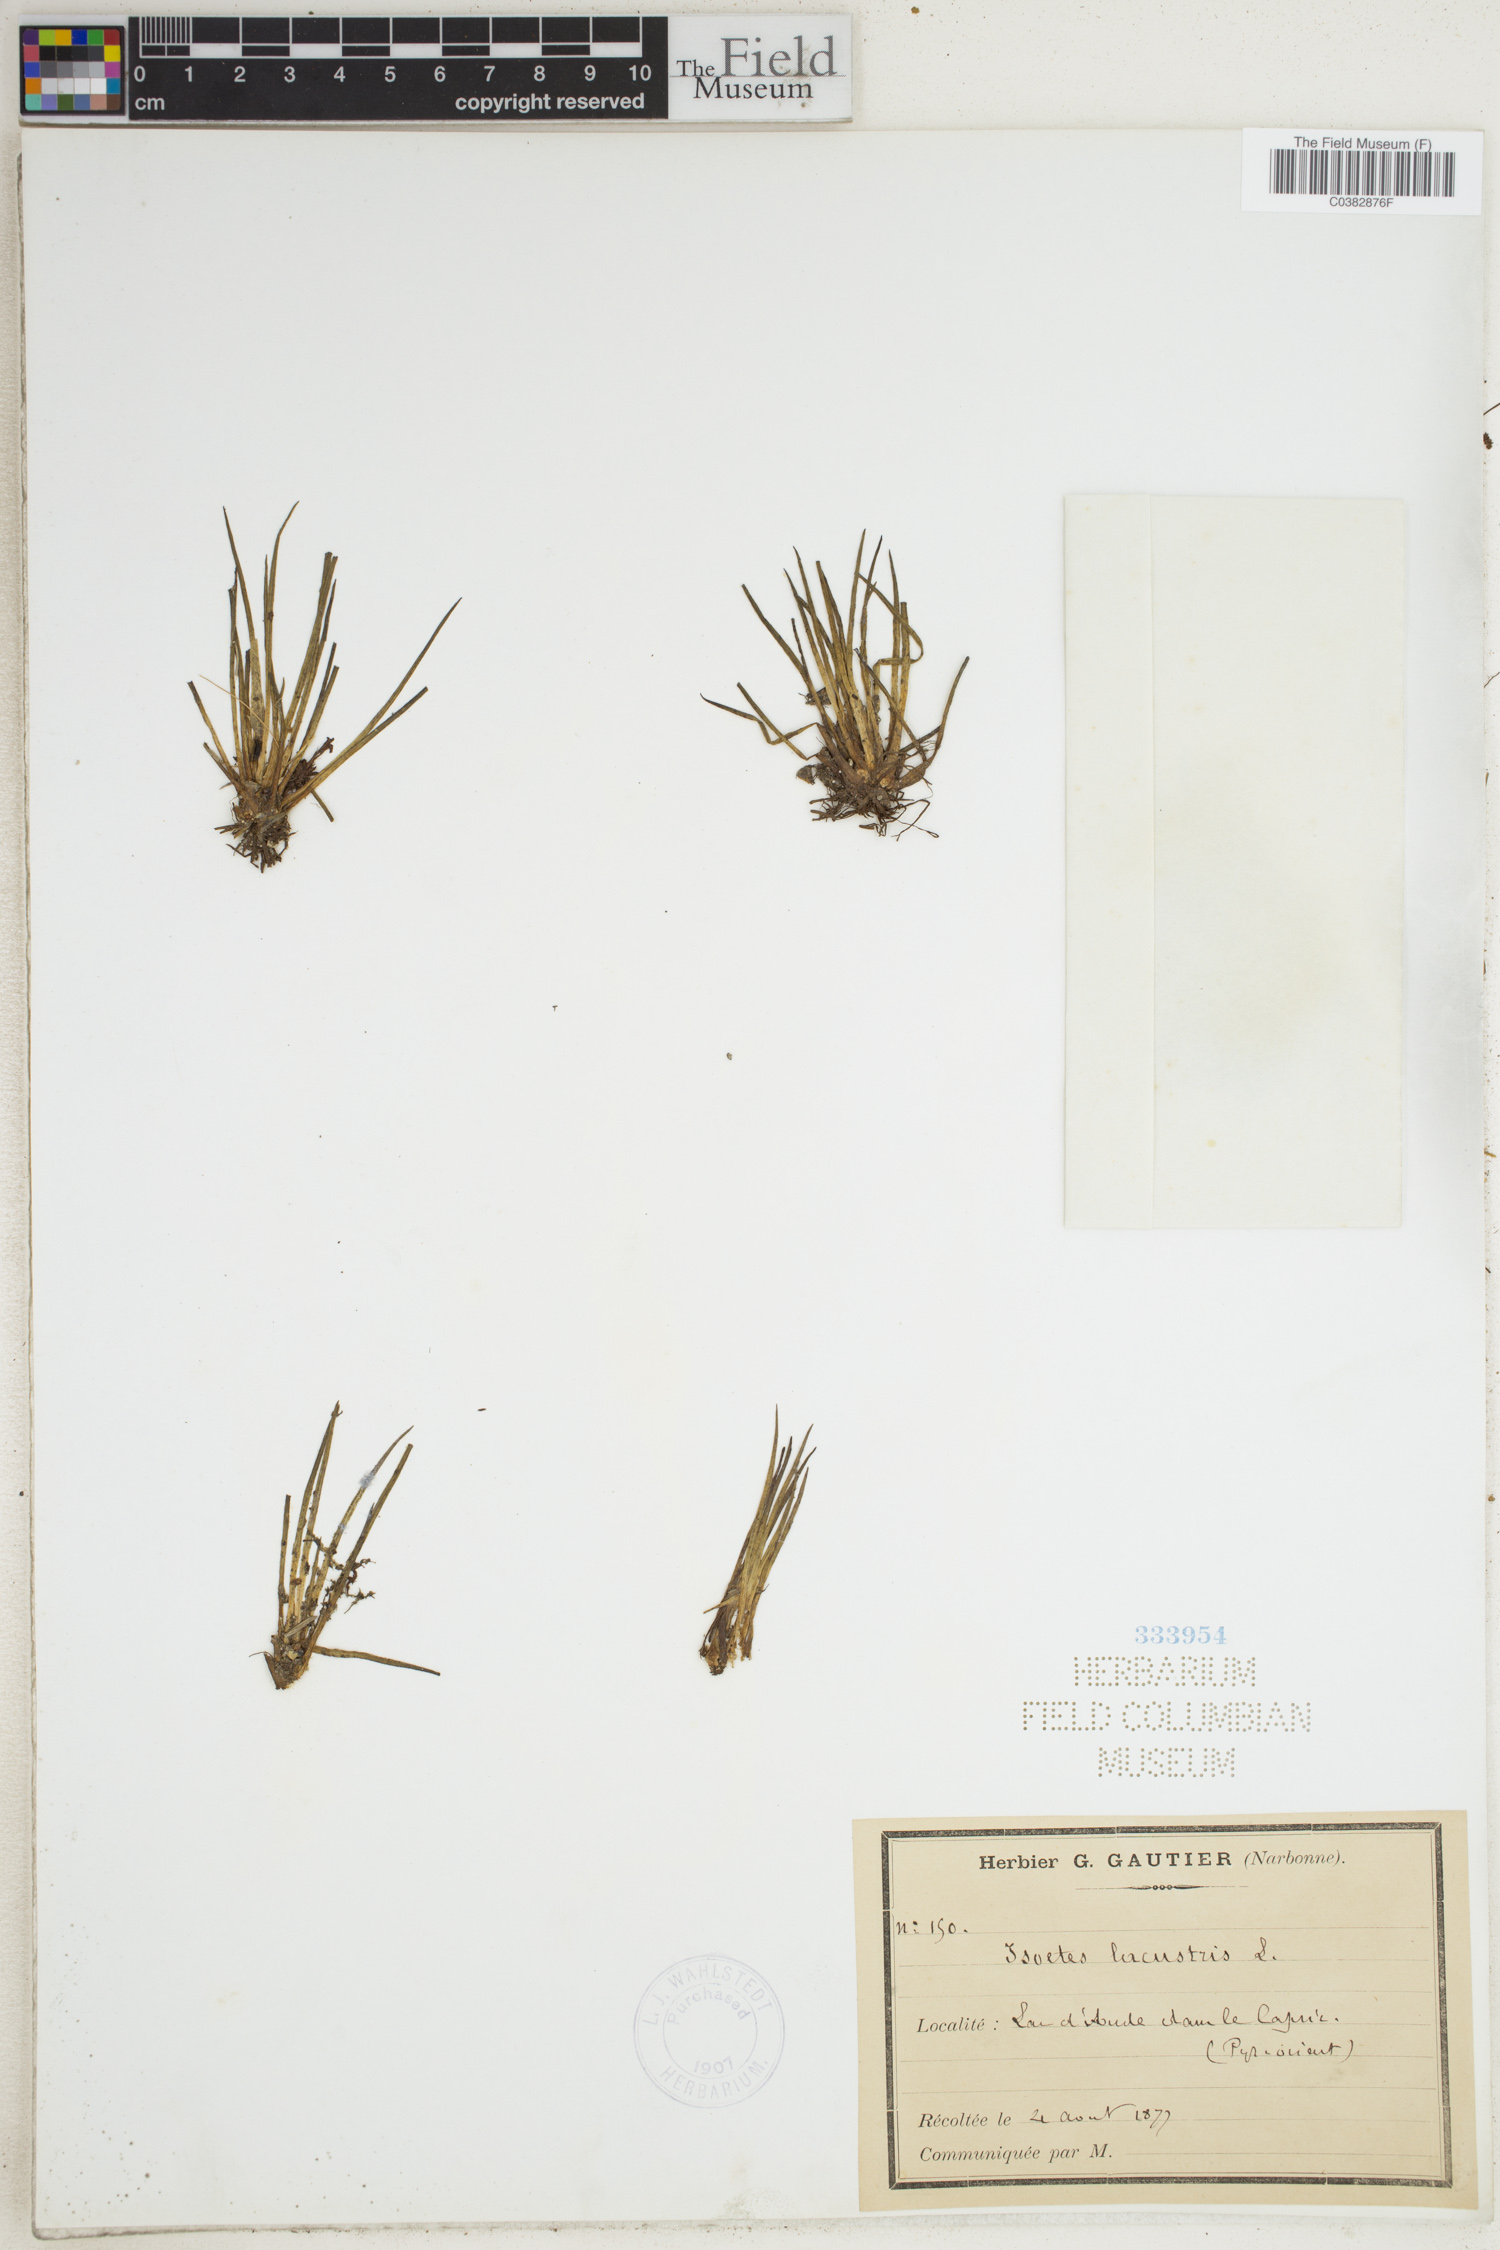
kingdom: Plantae
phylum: Tracheophyta
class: Lycopodiopsida
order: Isoetales
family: Isoetaceae
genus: Isoetes
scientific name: Isoetes lacustris
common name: Common quillwort
